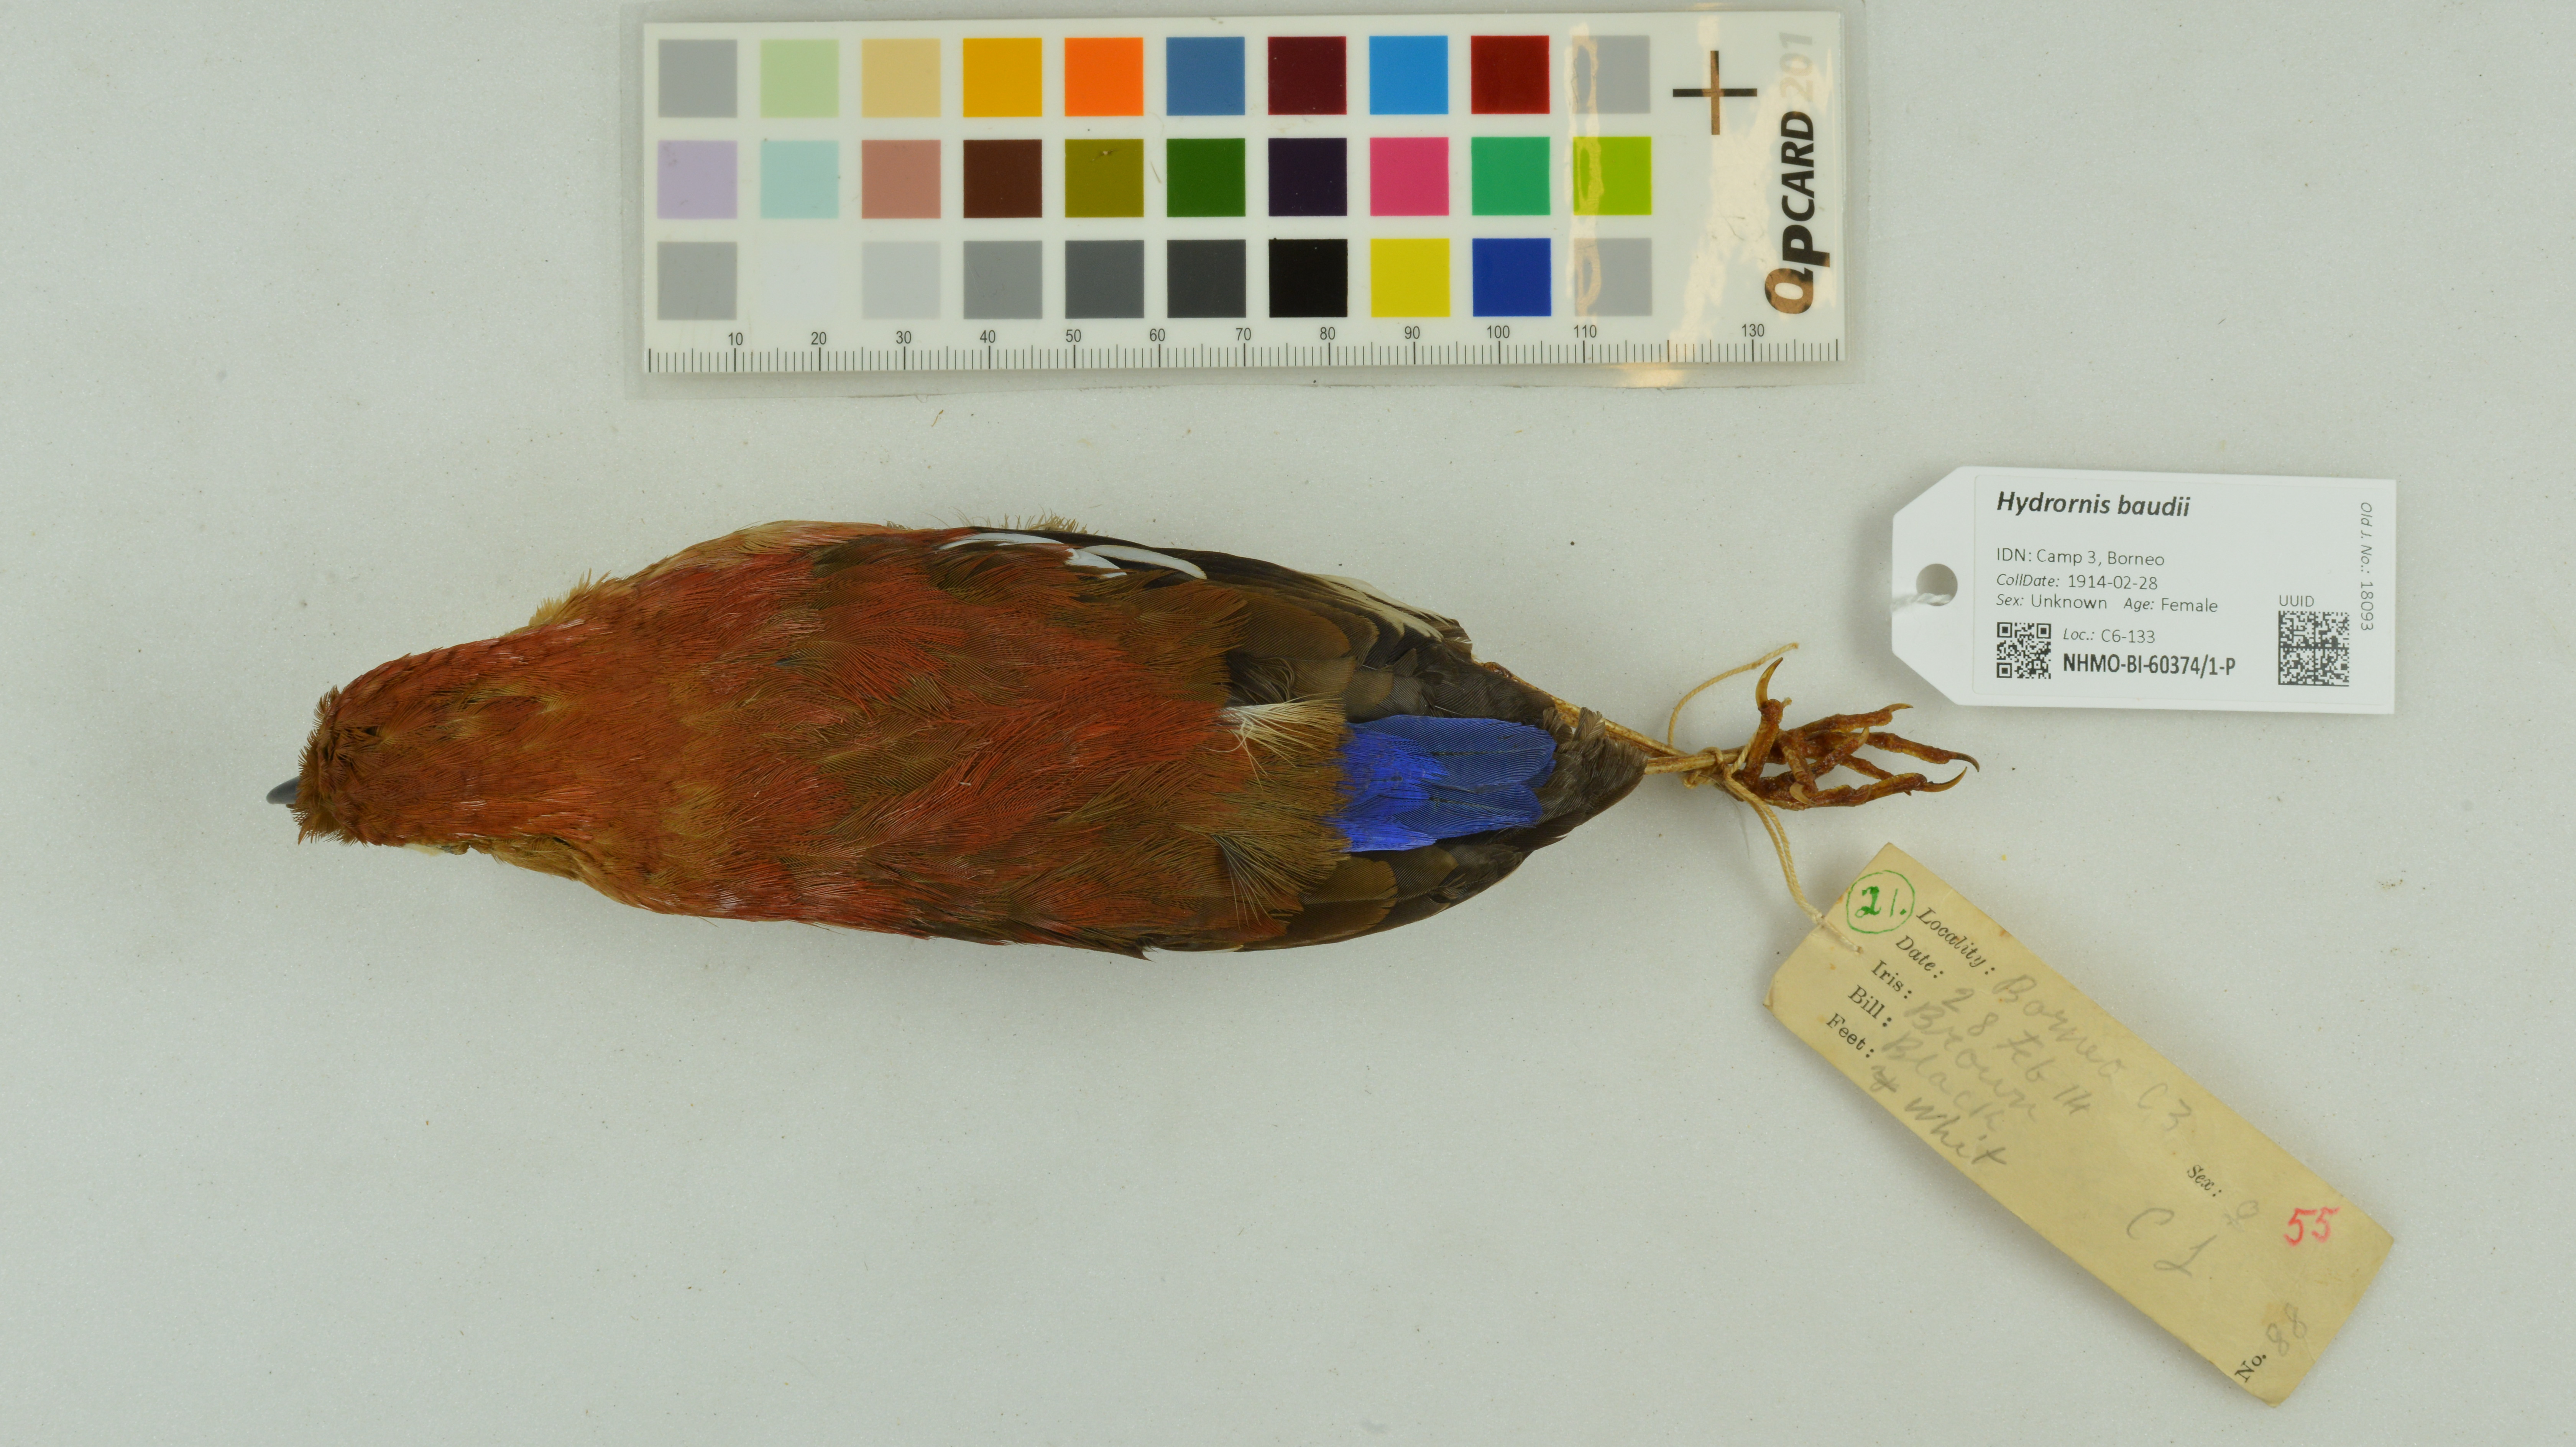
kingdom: Animalia
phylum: Chordata
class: Aves
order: Passeriformes
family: Pittidae
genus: Pitta
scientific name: Pitta baudii
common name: Blue-headed pitta
